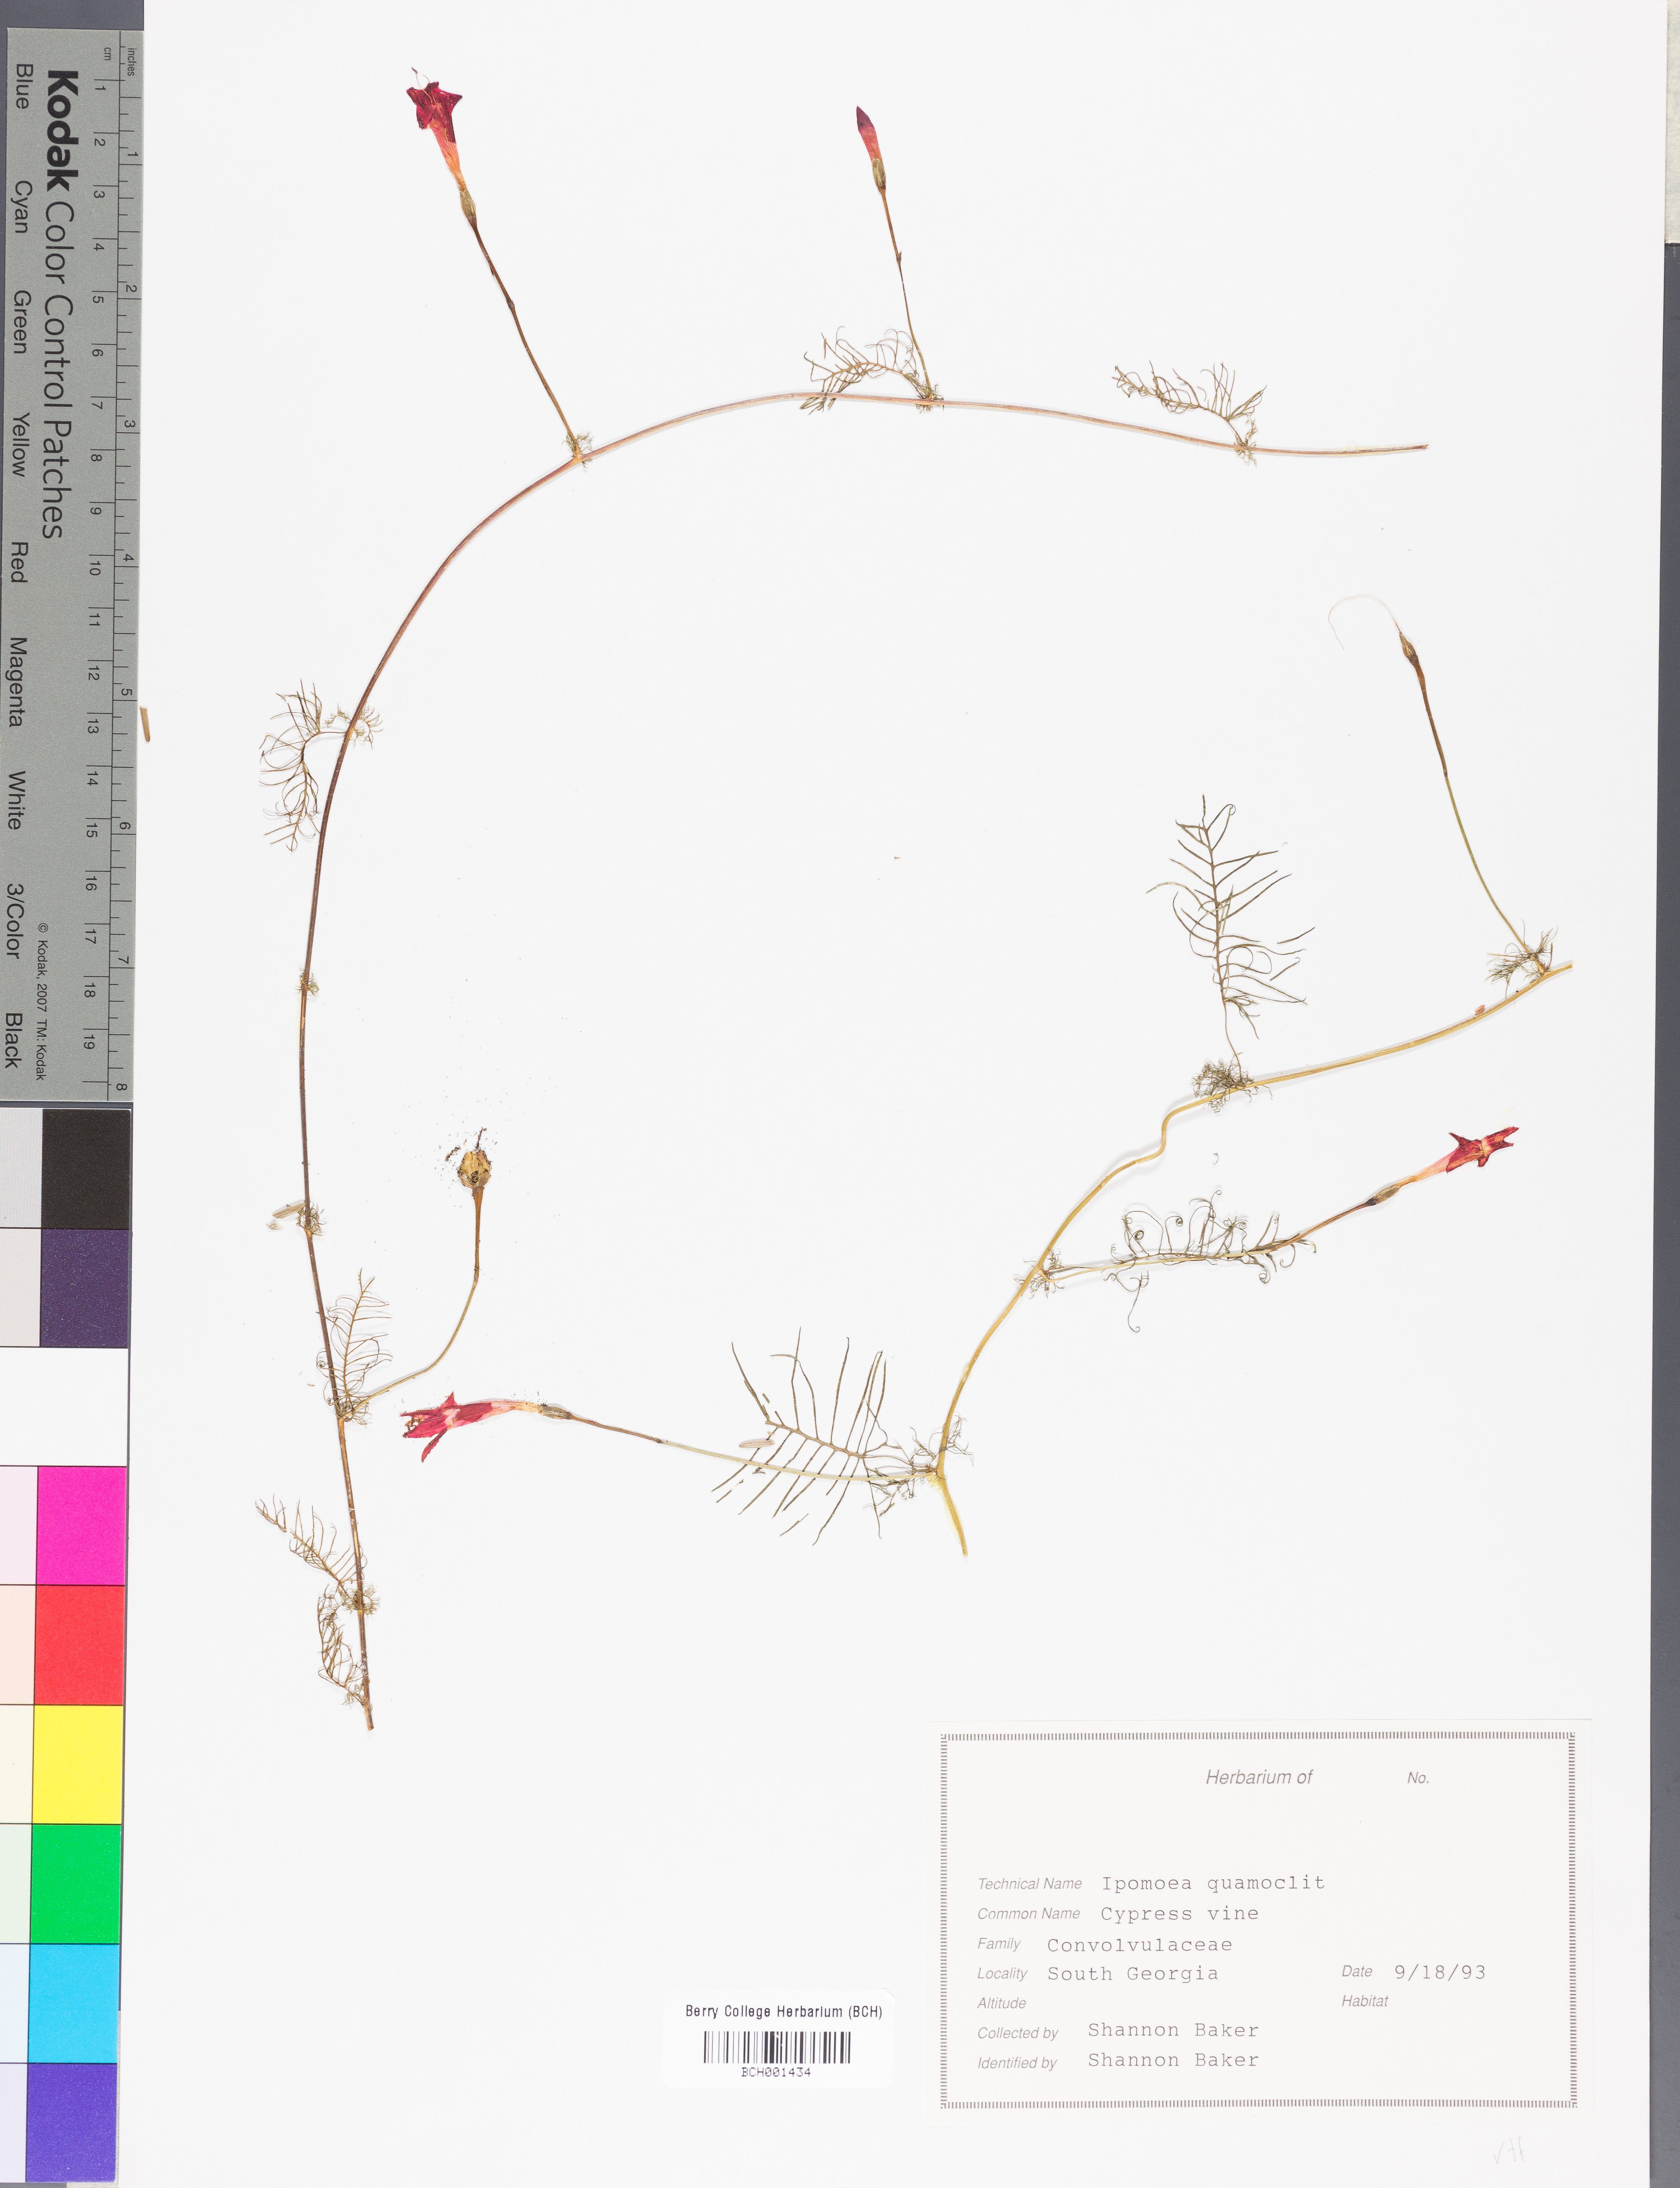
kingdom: Plantae
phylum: Tracheophyta
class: Magnoliopsida
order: Solanales
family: Convolvulaceae
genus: Ipomoea
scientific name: Ipomoea quamoclit
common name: Cypress vine
